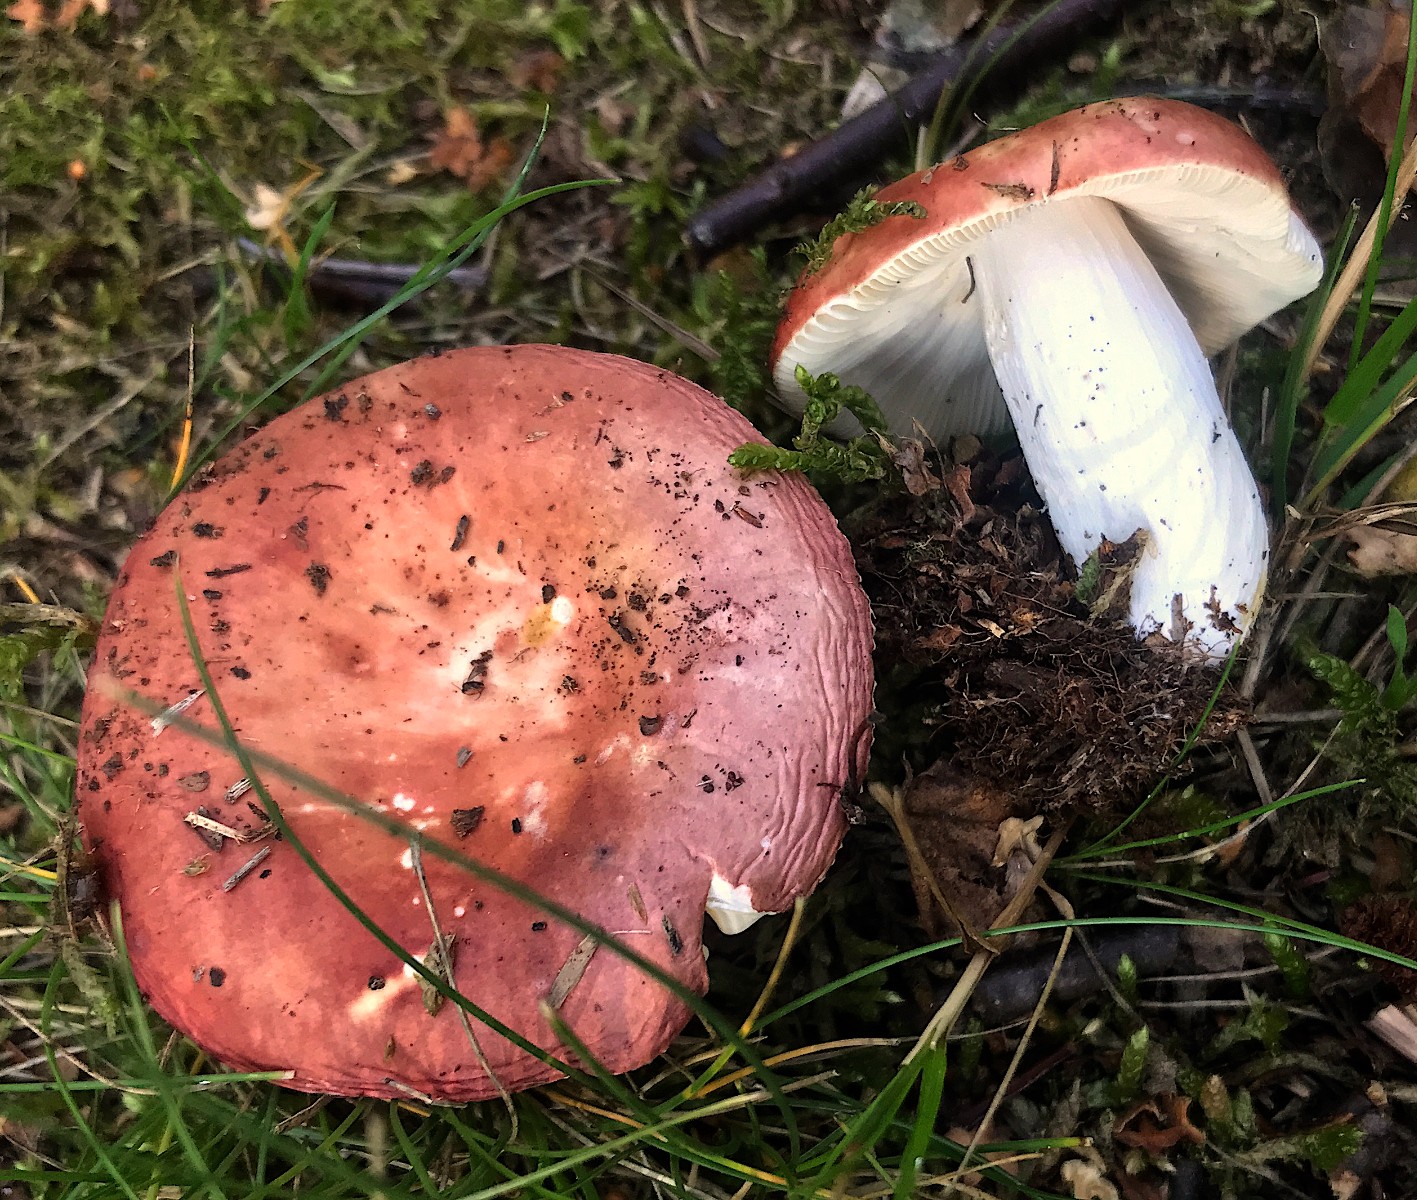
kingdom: Fungi
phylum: Basidiomycota
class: Agaricomycetes
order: Russulales
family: Russulaceae
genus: Russula
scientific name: Russula
